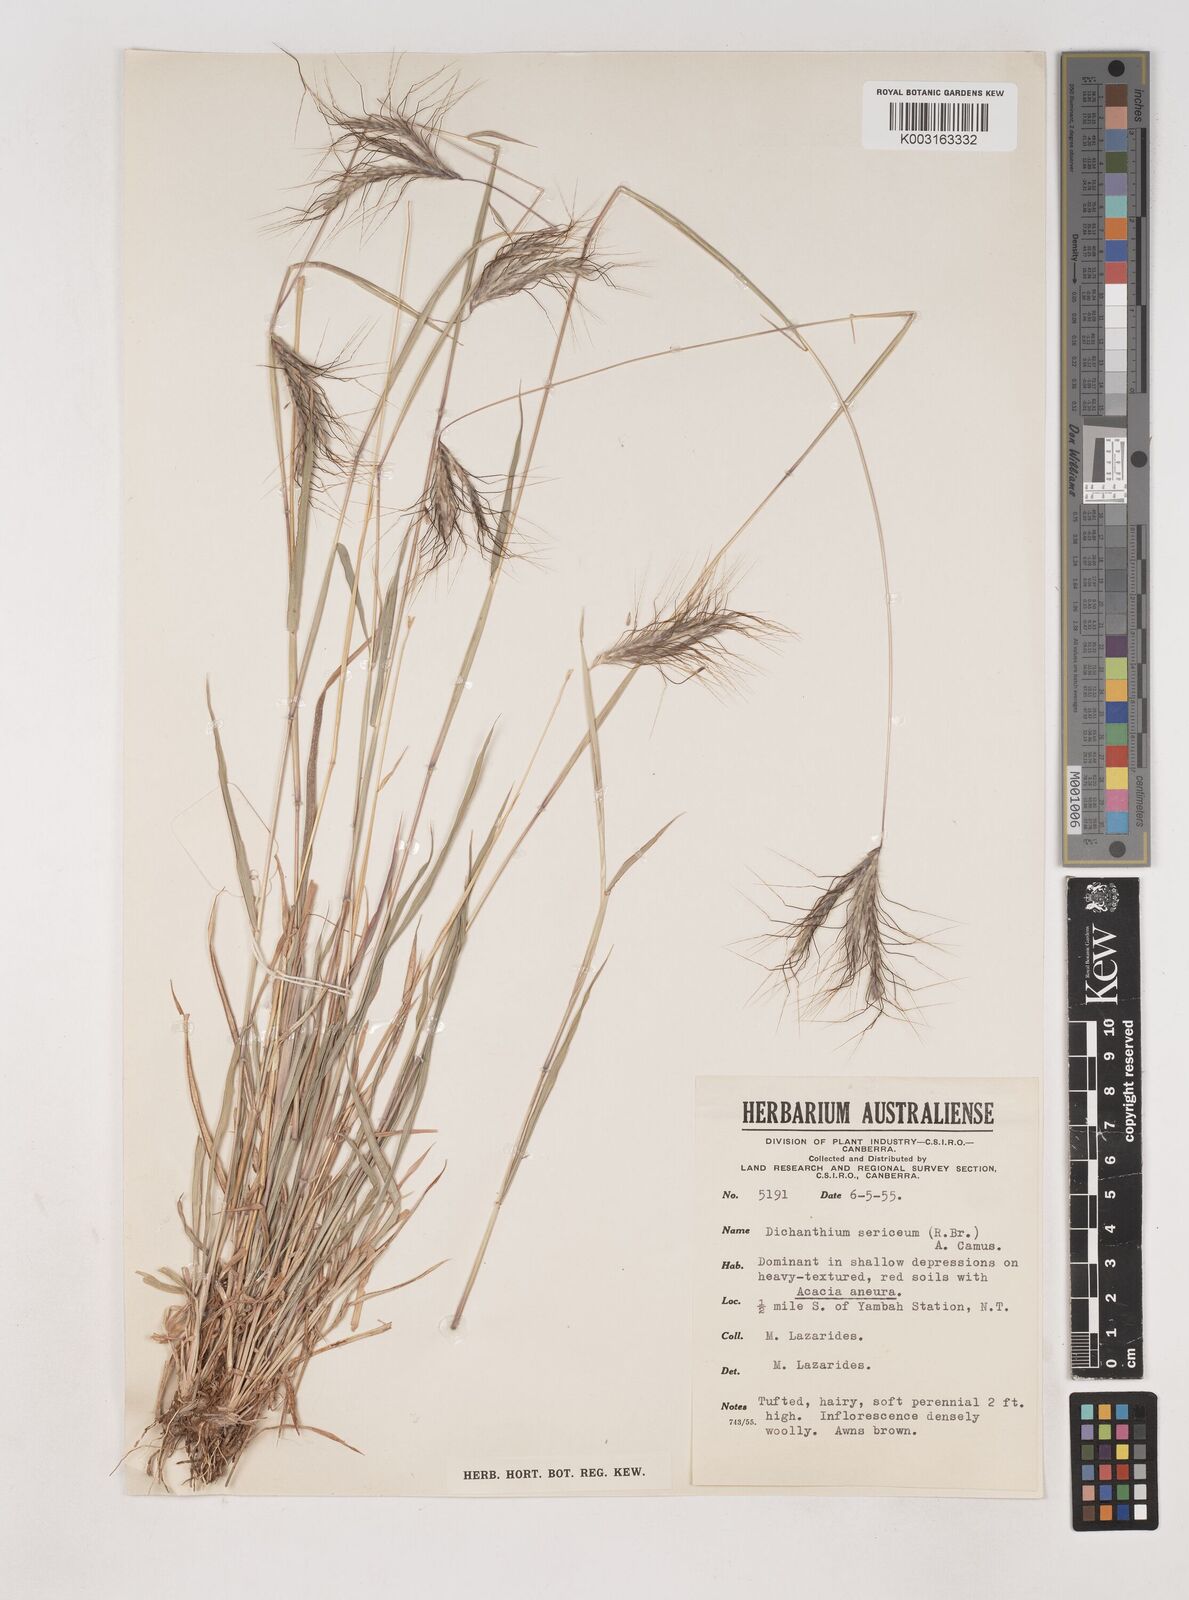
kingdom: Plantae
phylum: Tracheophyta
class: Liliopsida
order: Poales
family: Poaceae
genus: Dichanthium
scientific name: Dichanthium sericeum
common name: Silky bluestem
